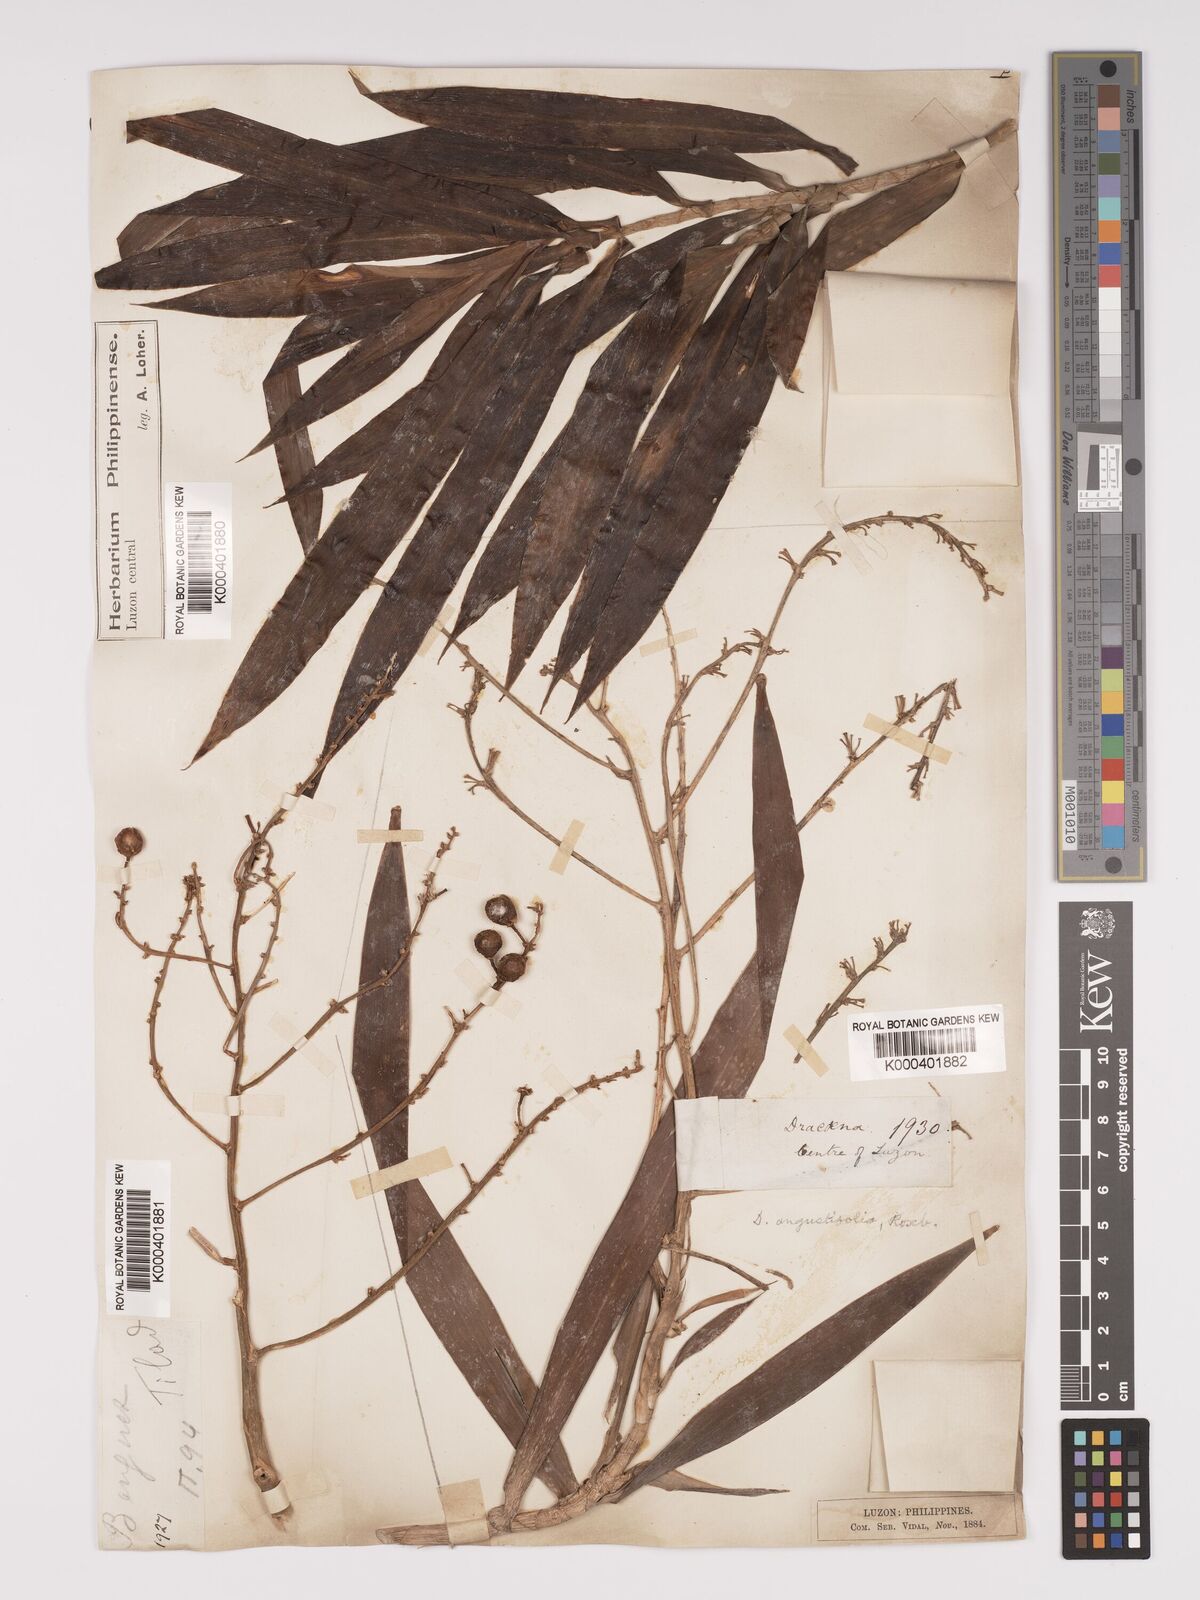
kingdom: Plantae
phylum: Tracheophyta
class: Liliopsida
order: Asparagales
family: Asparagaceae
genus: Dracaena
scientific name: Dracaena angustifolia
